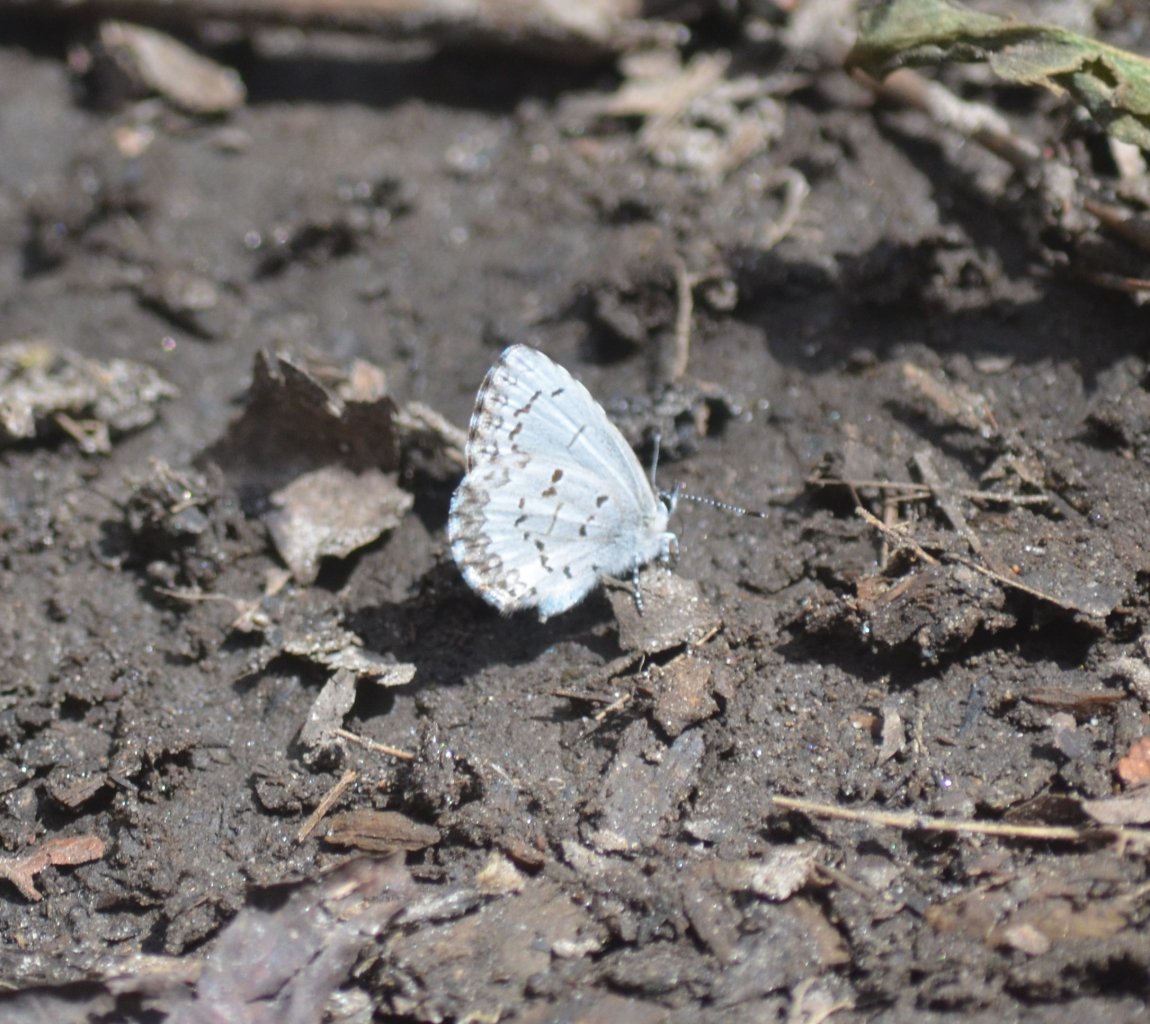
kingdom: Animalia
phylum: Arthropoda
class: Insecta
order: Lepidoptera
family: Lycaenidae
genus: Celastrina
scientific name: Celastrina lucia
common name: Northern Spring Azure
